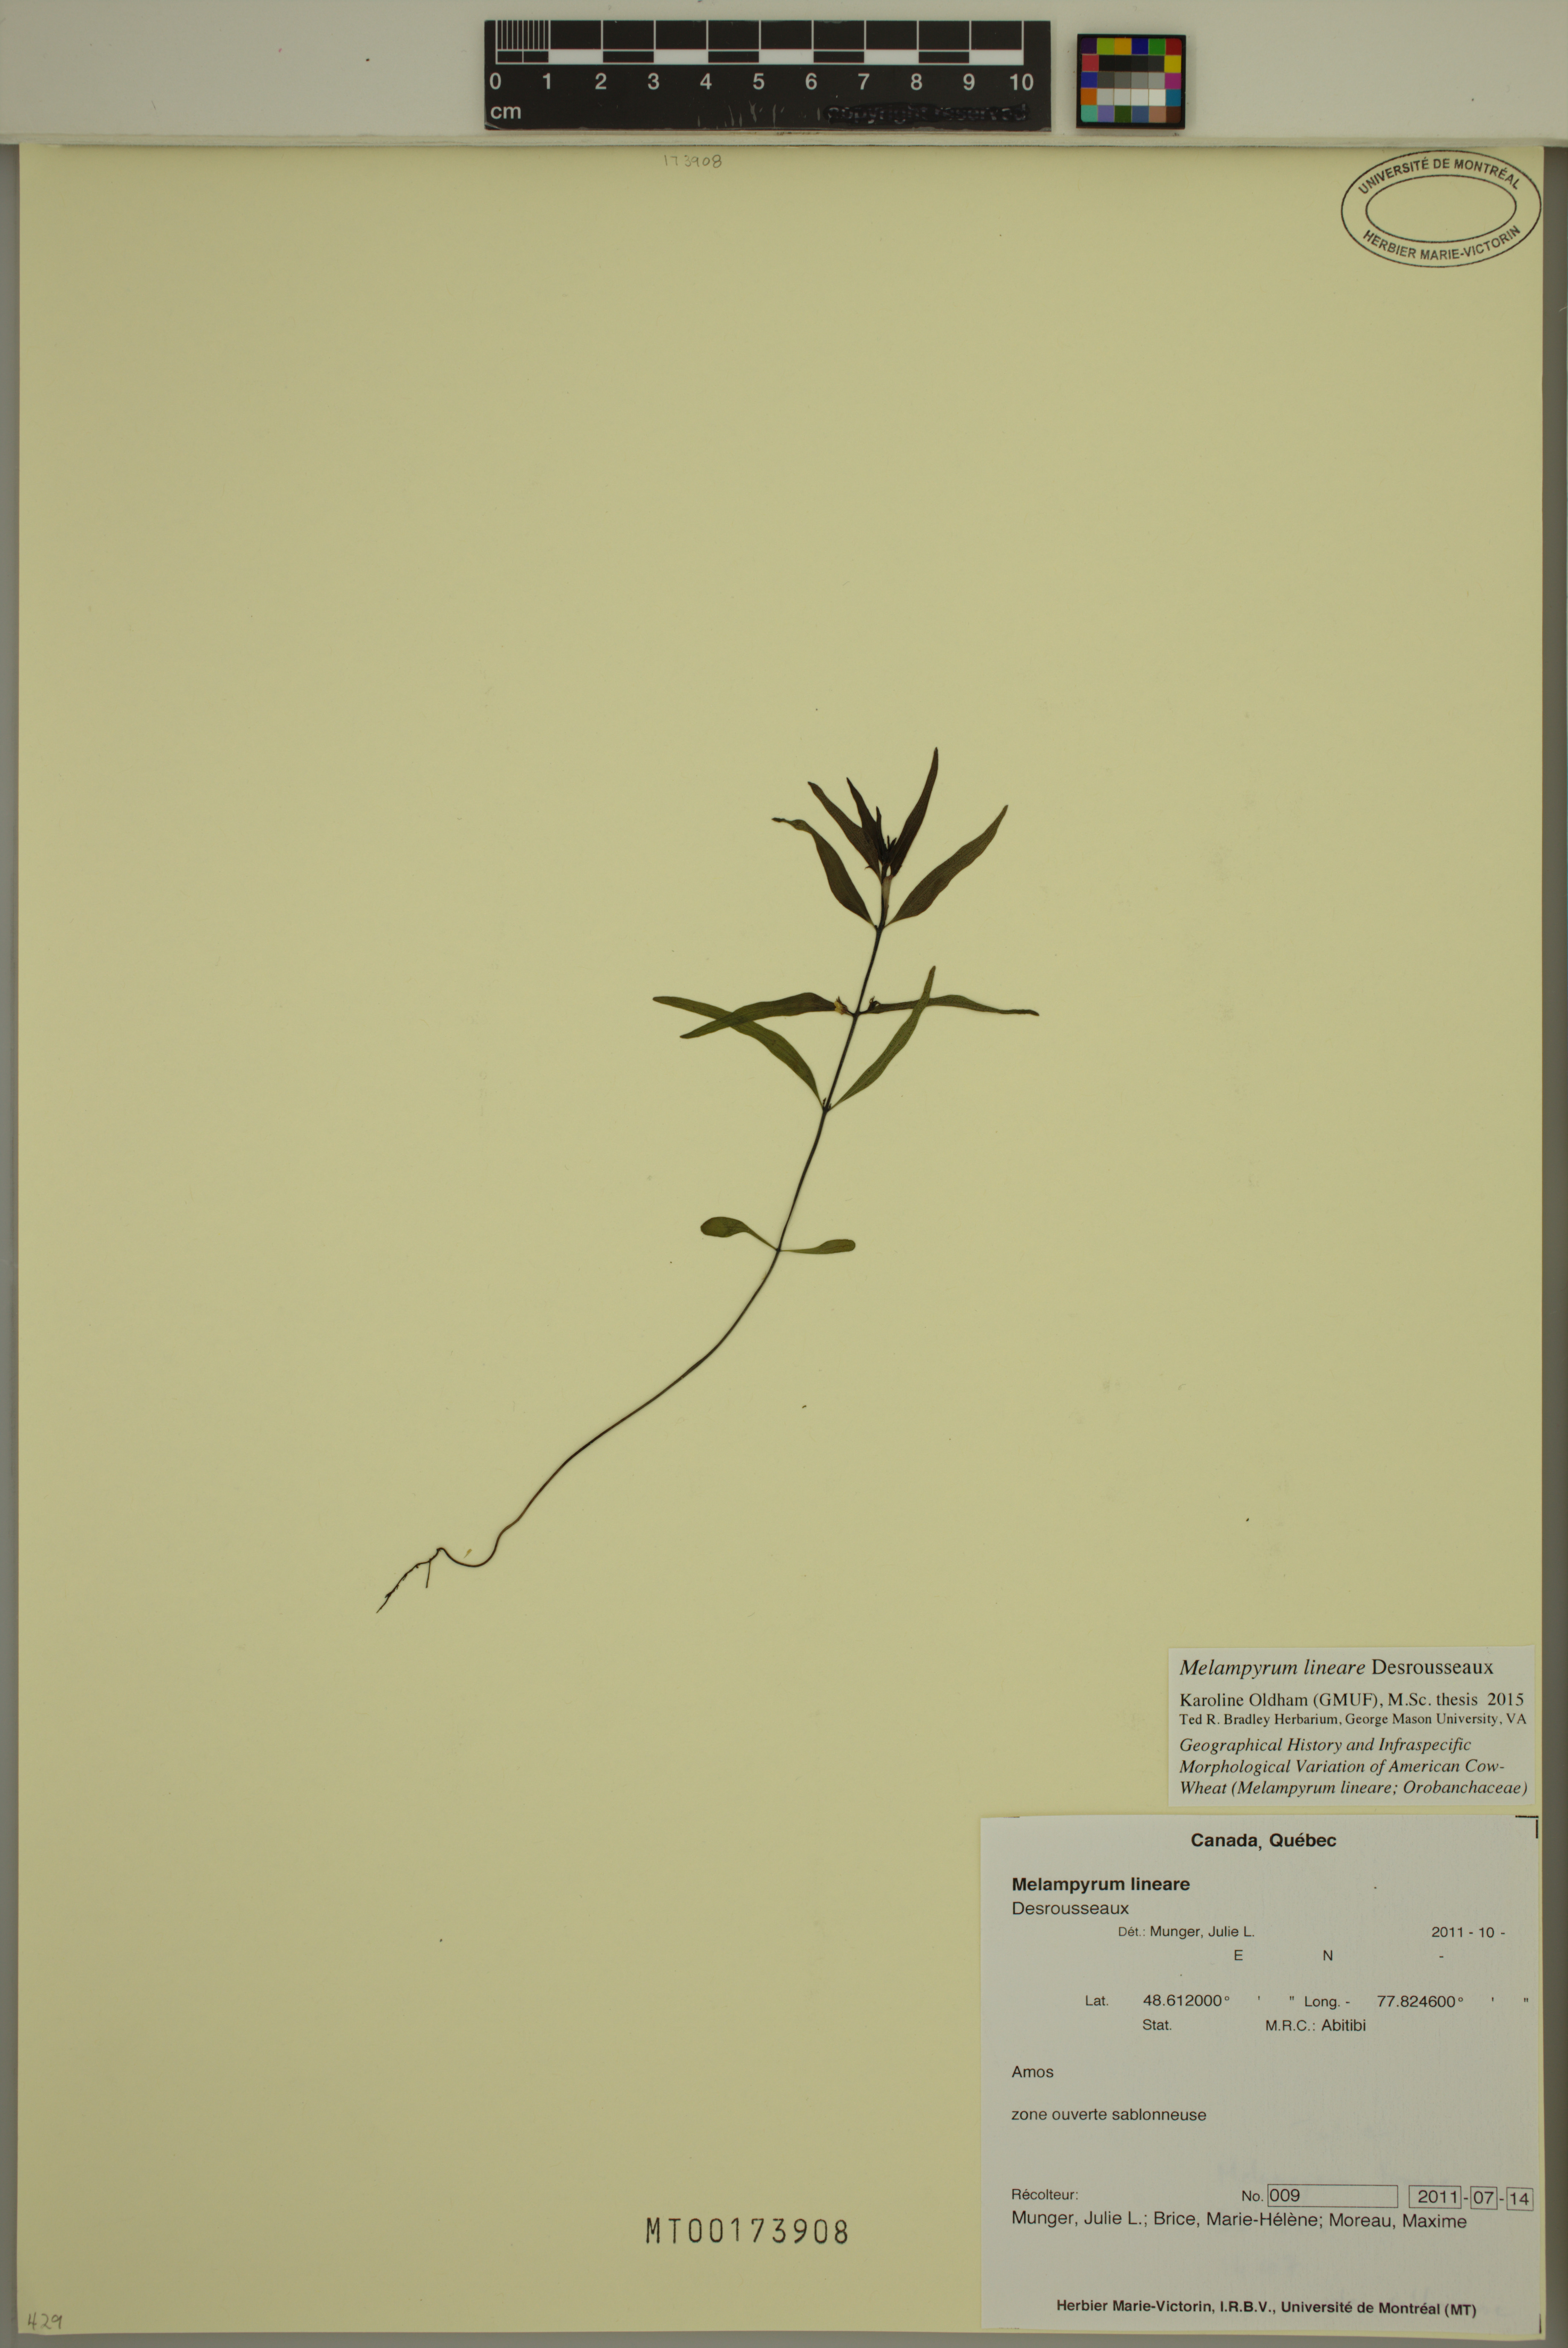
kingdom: Plantae
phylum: Tracheophyta
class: Magnoliopsida
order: Lamiales
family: Orobanchaceae
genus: Melampyrum
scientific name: Melampyrum lineare
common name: American cow-wheat
